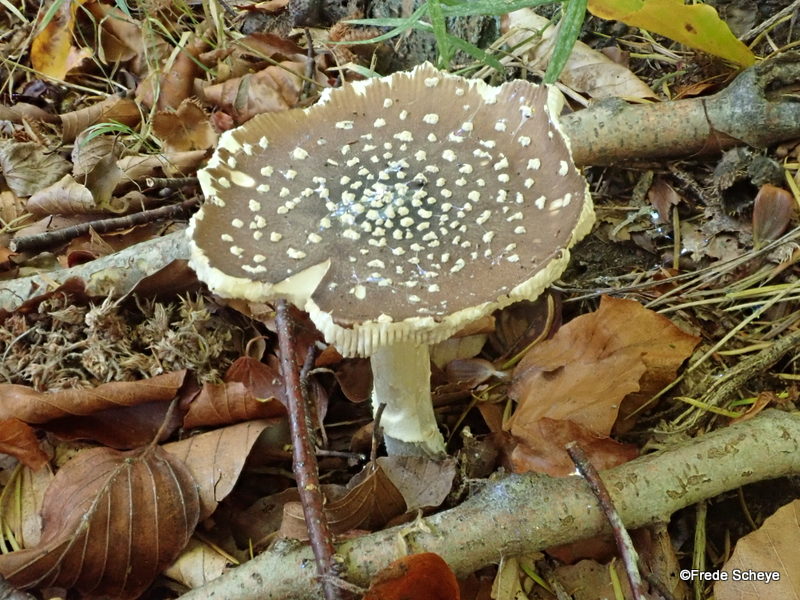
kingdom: Fungi
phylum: Basidiomycota
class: Agaricomycetes
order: Agaricales
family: Amanitaceae
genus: Amanita
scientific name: Amanita pantherina
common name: panter-fluesvamp
